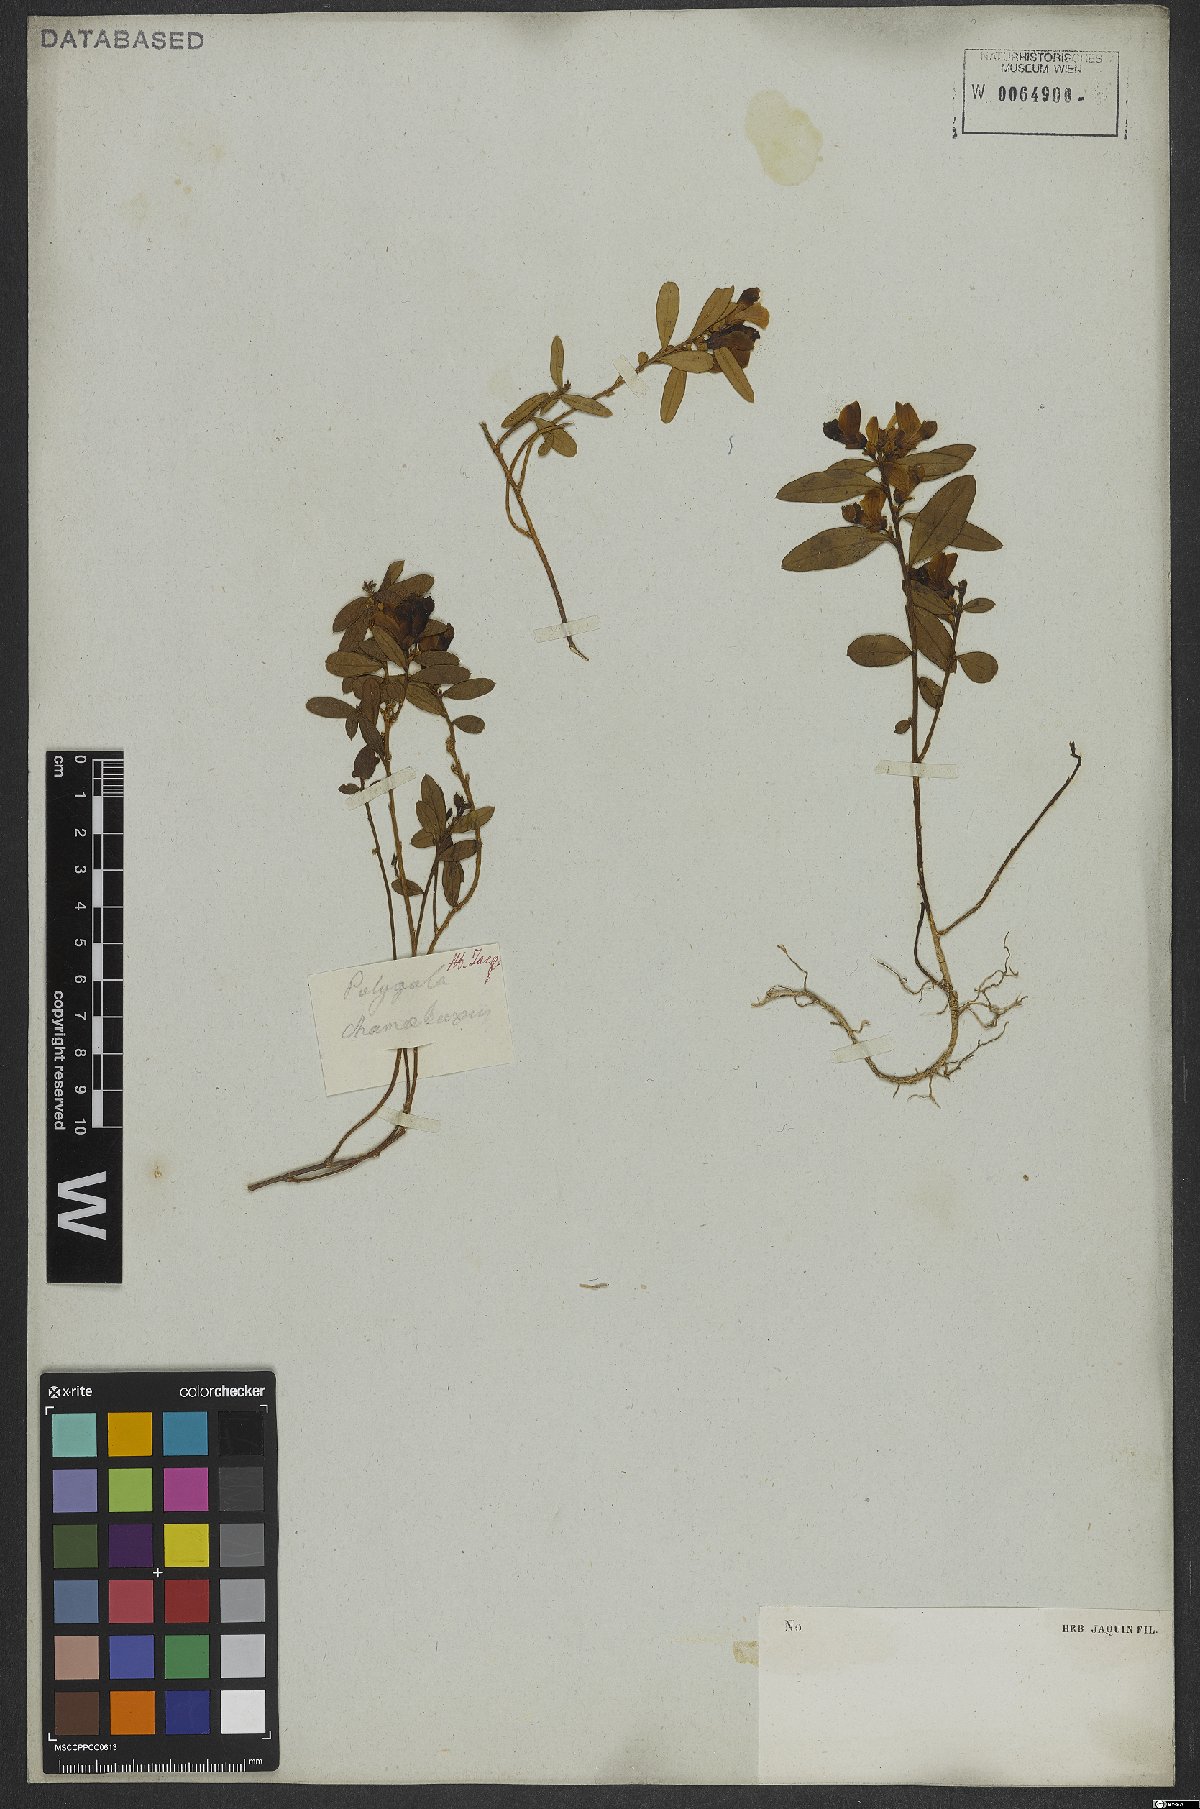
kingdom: Plantae
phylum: Tracheophyta
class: Magnoliopsida
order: Fabales
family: Polygalaceae
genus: Polygaloides
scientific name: Polygaloides chamaebuxus
